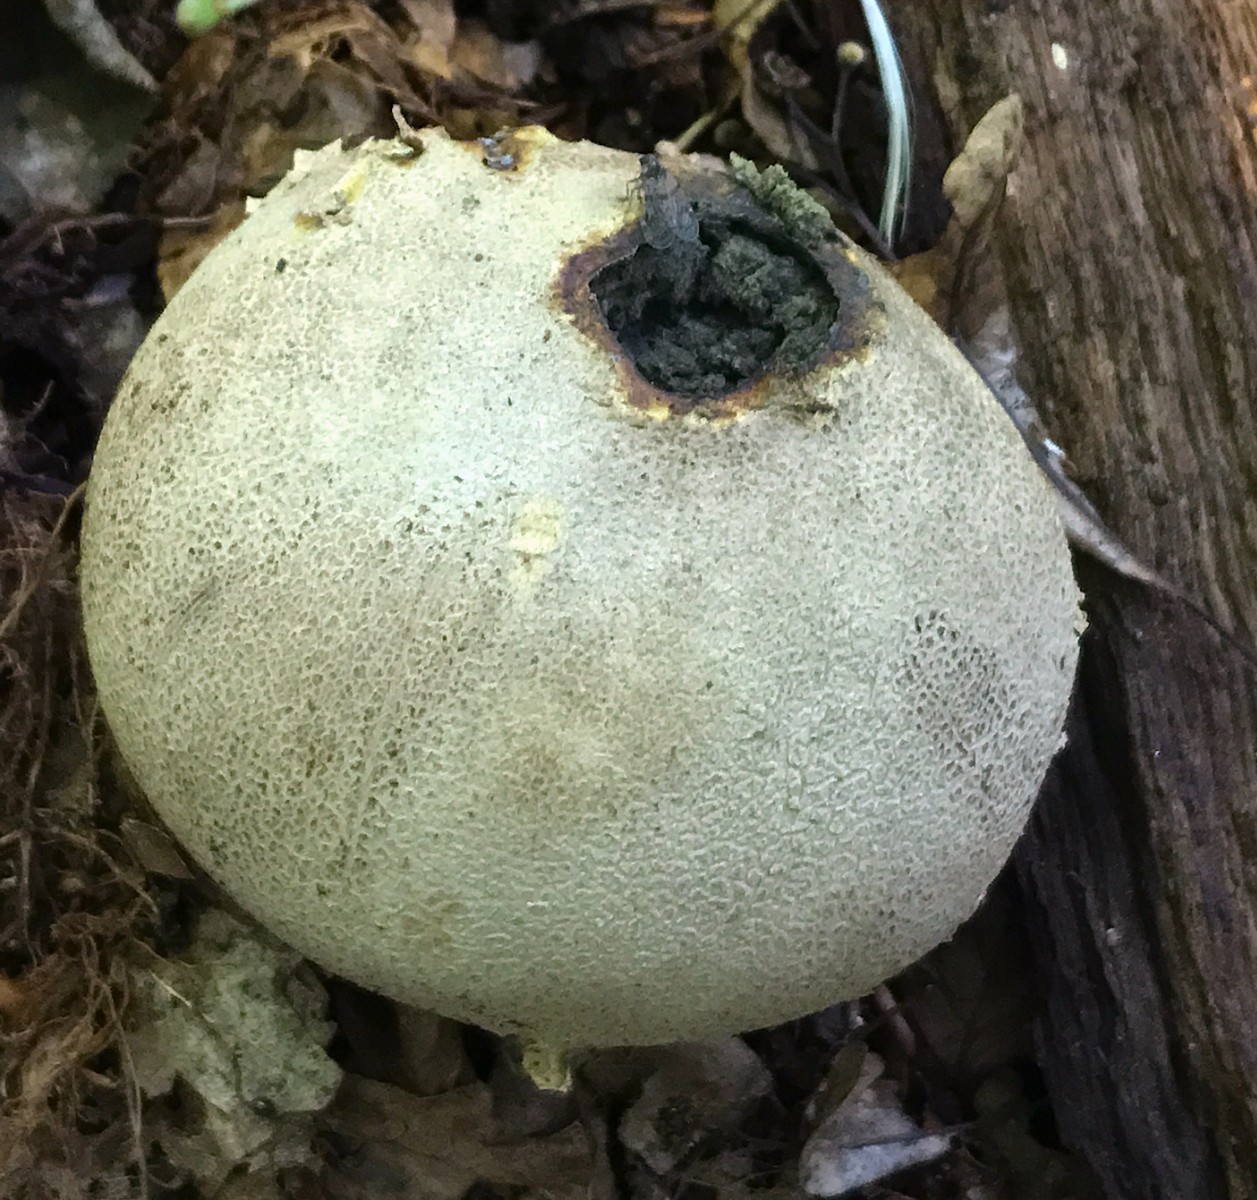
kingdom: Fungi
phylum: Basidiomycota
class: Agaricomycetes
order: Boletales
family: Sclerodermataceae
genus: Scleroderma
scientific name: Scleroderma verrucosum
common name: stilket bruskbold
